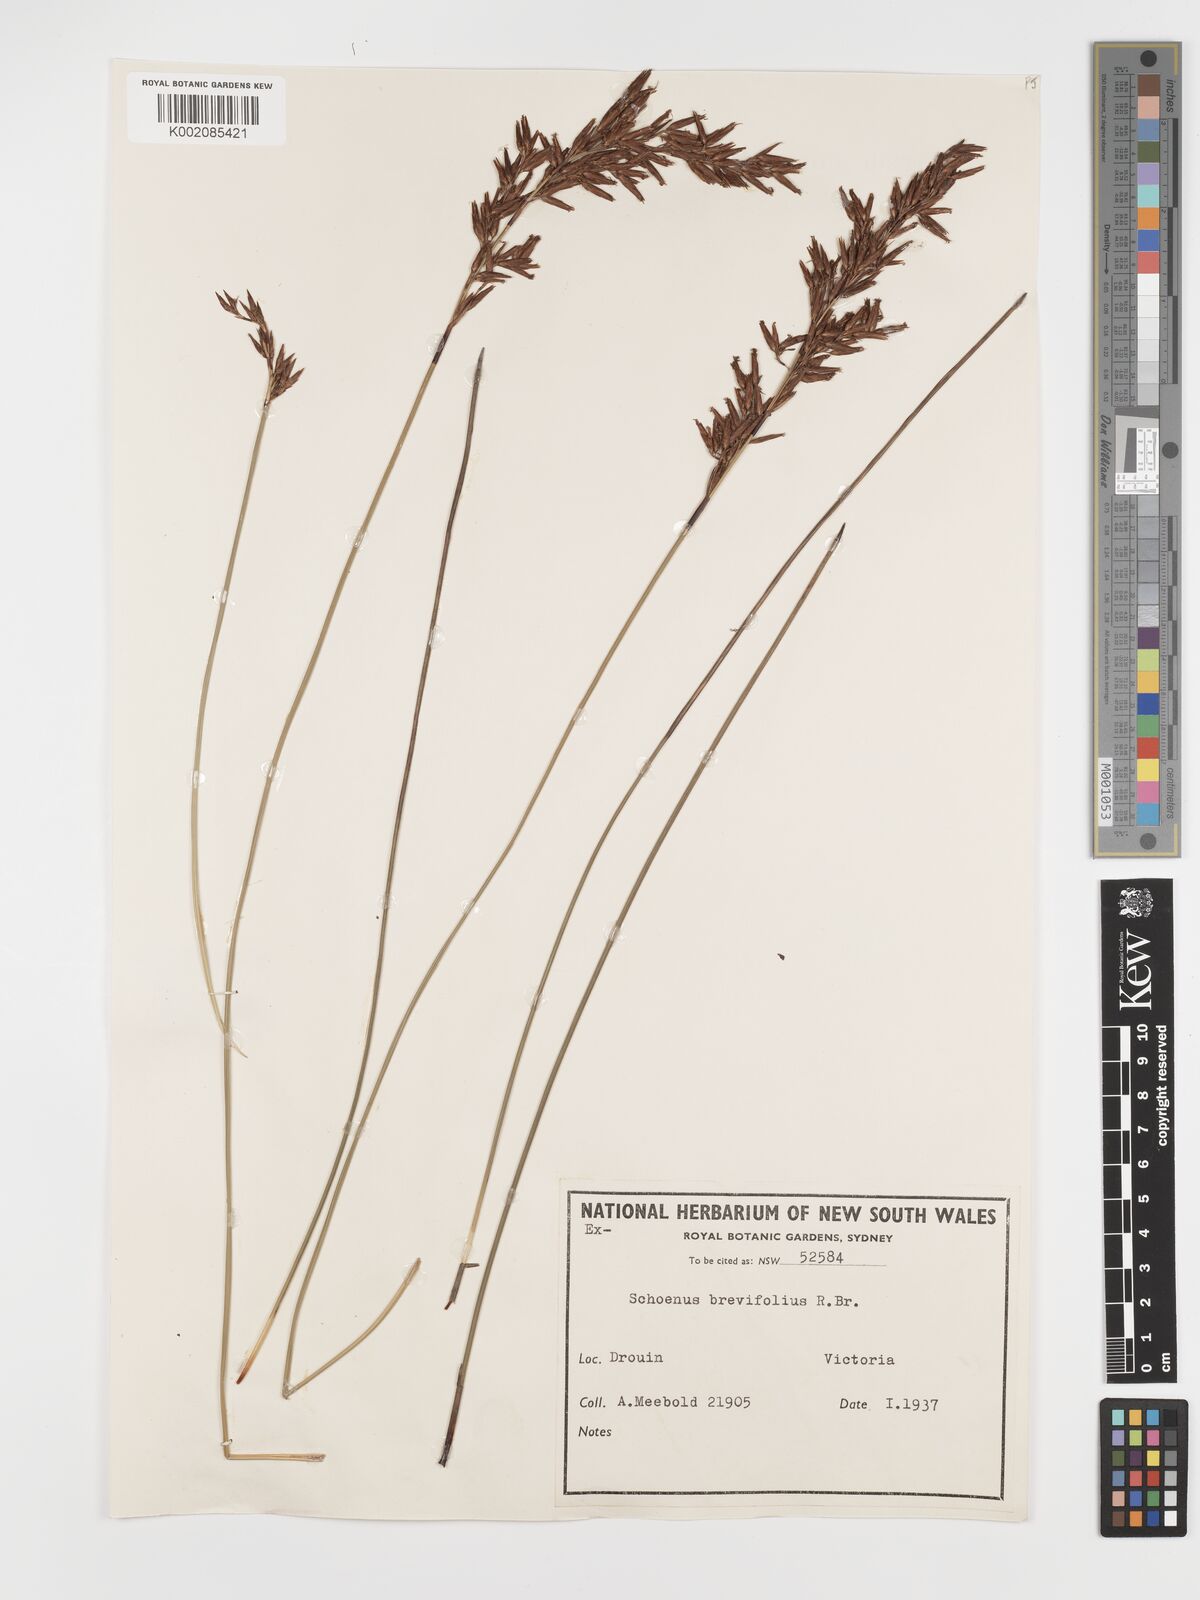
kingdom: Plantae
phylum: Tracheophyta
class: Liliopsida
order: Poales
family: Cyperaceae
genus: Schoenus
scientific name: Schoenus brevifolius
